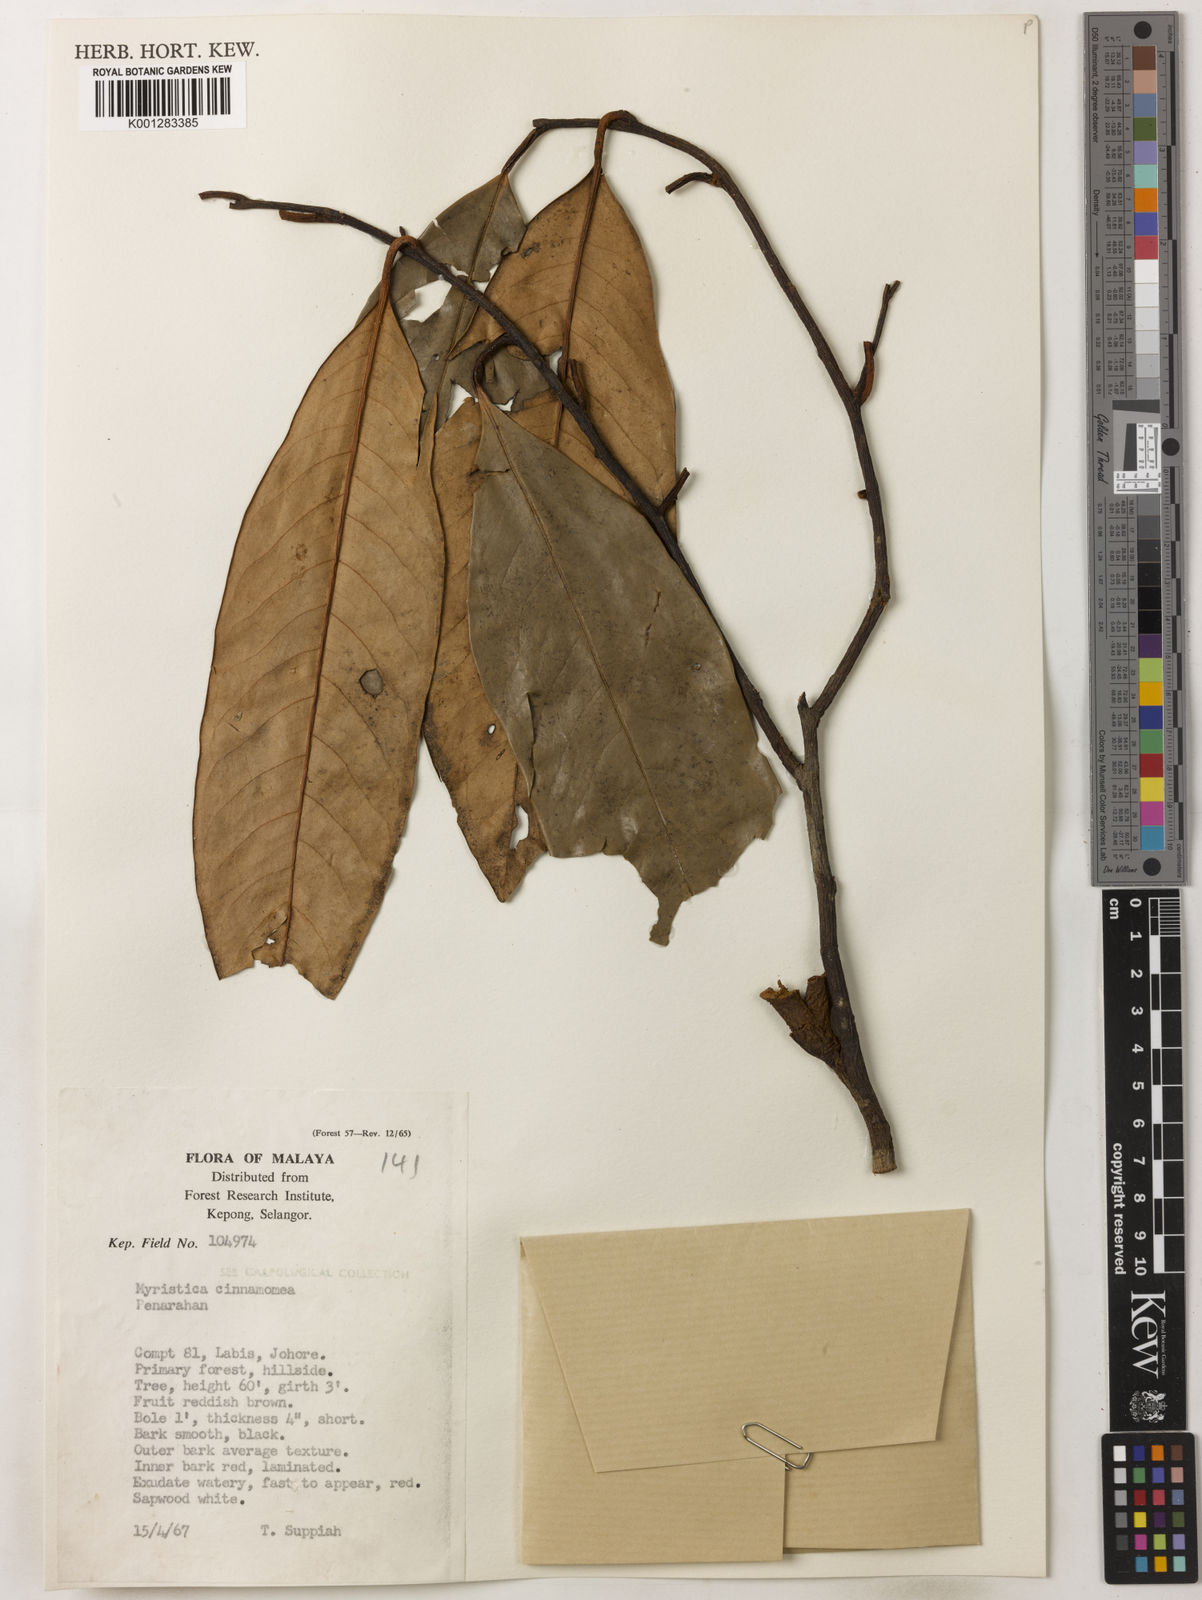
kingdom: Plantae
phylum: Tracheophyta
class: Magnoliopsida
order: Magnoliales
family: Myristicaceae
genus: Myristica
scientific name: Myristica cinnamomea
